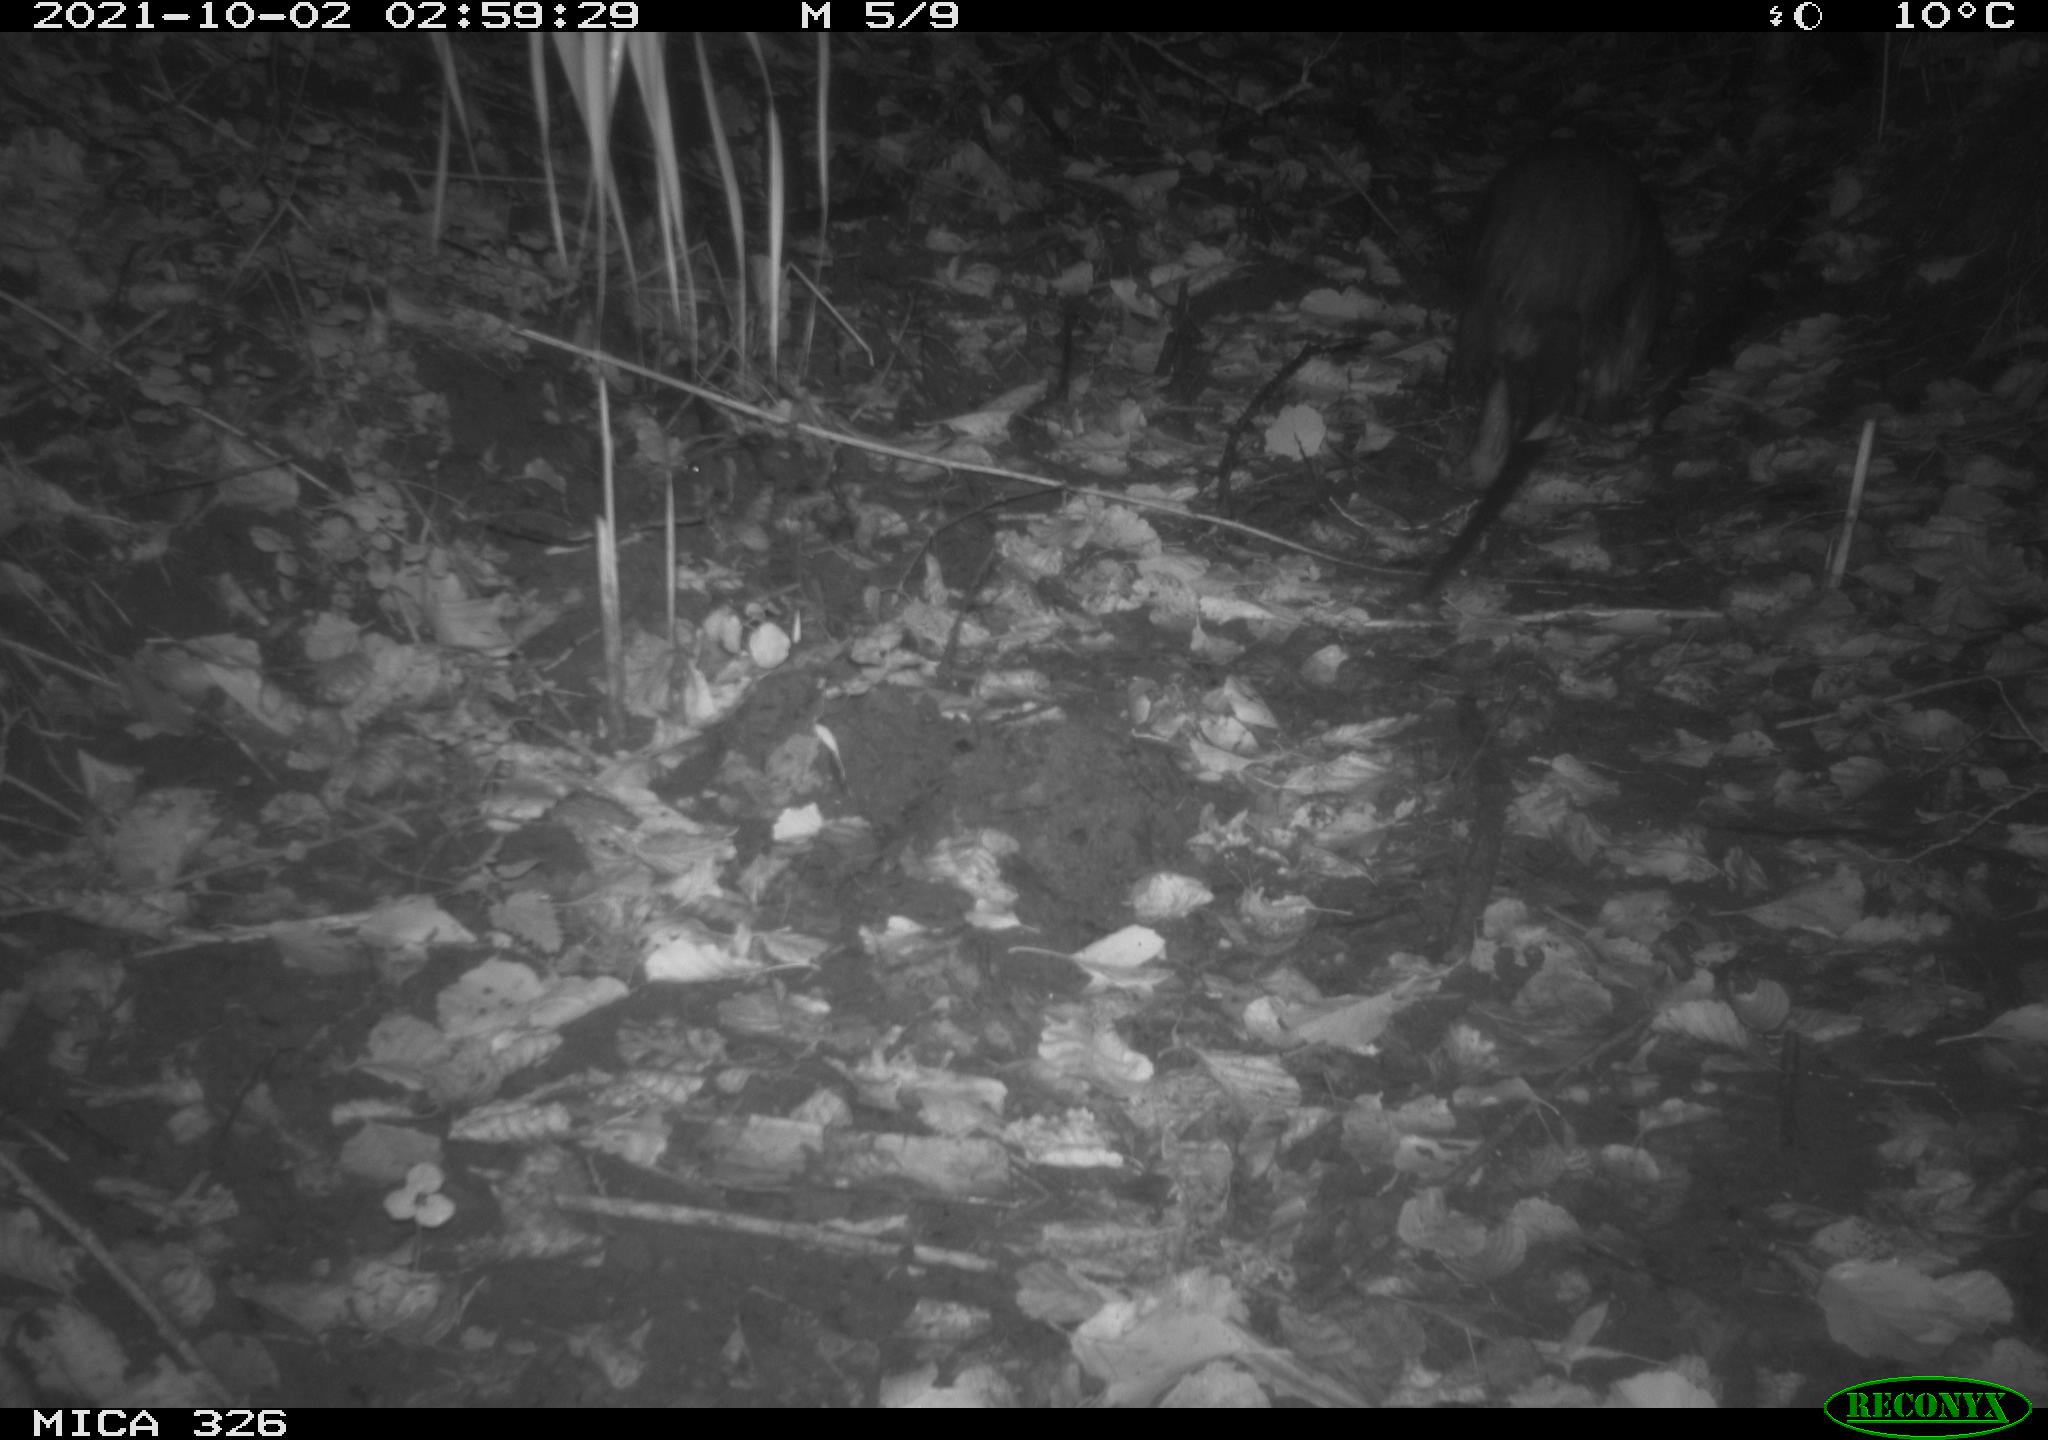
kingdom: Animalia
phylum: Chordata
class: Mammalia
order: Rodentia
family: Myocastoridae
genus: Myocastor
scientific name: Myocastor coypus
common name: Coypu
